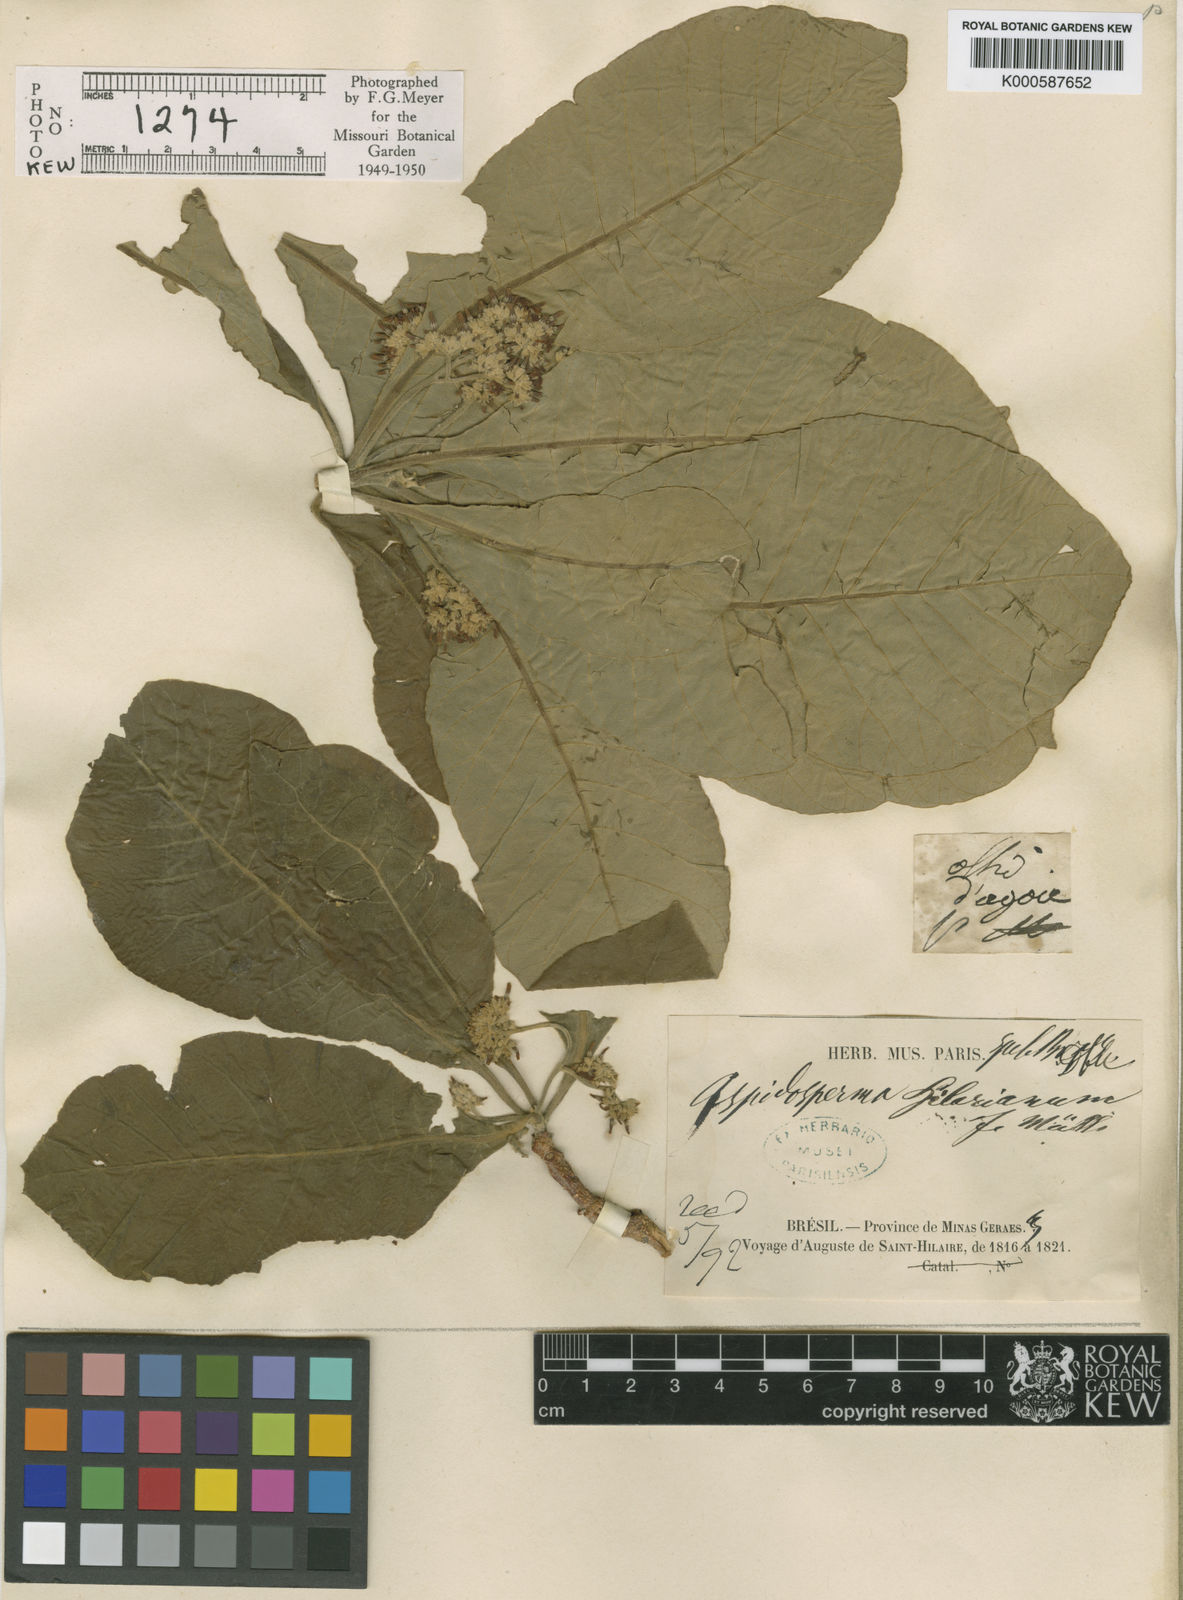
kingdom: Plantae
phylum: Tracheophyta
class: Magnoliopsida
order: Gentianales
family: Apocynaceae
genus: Aspidosperma
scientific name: Aspidosperma tomentosum
